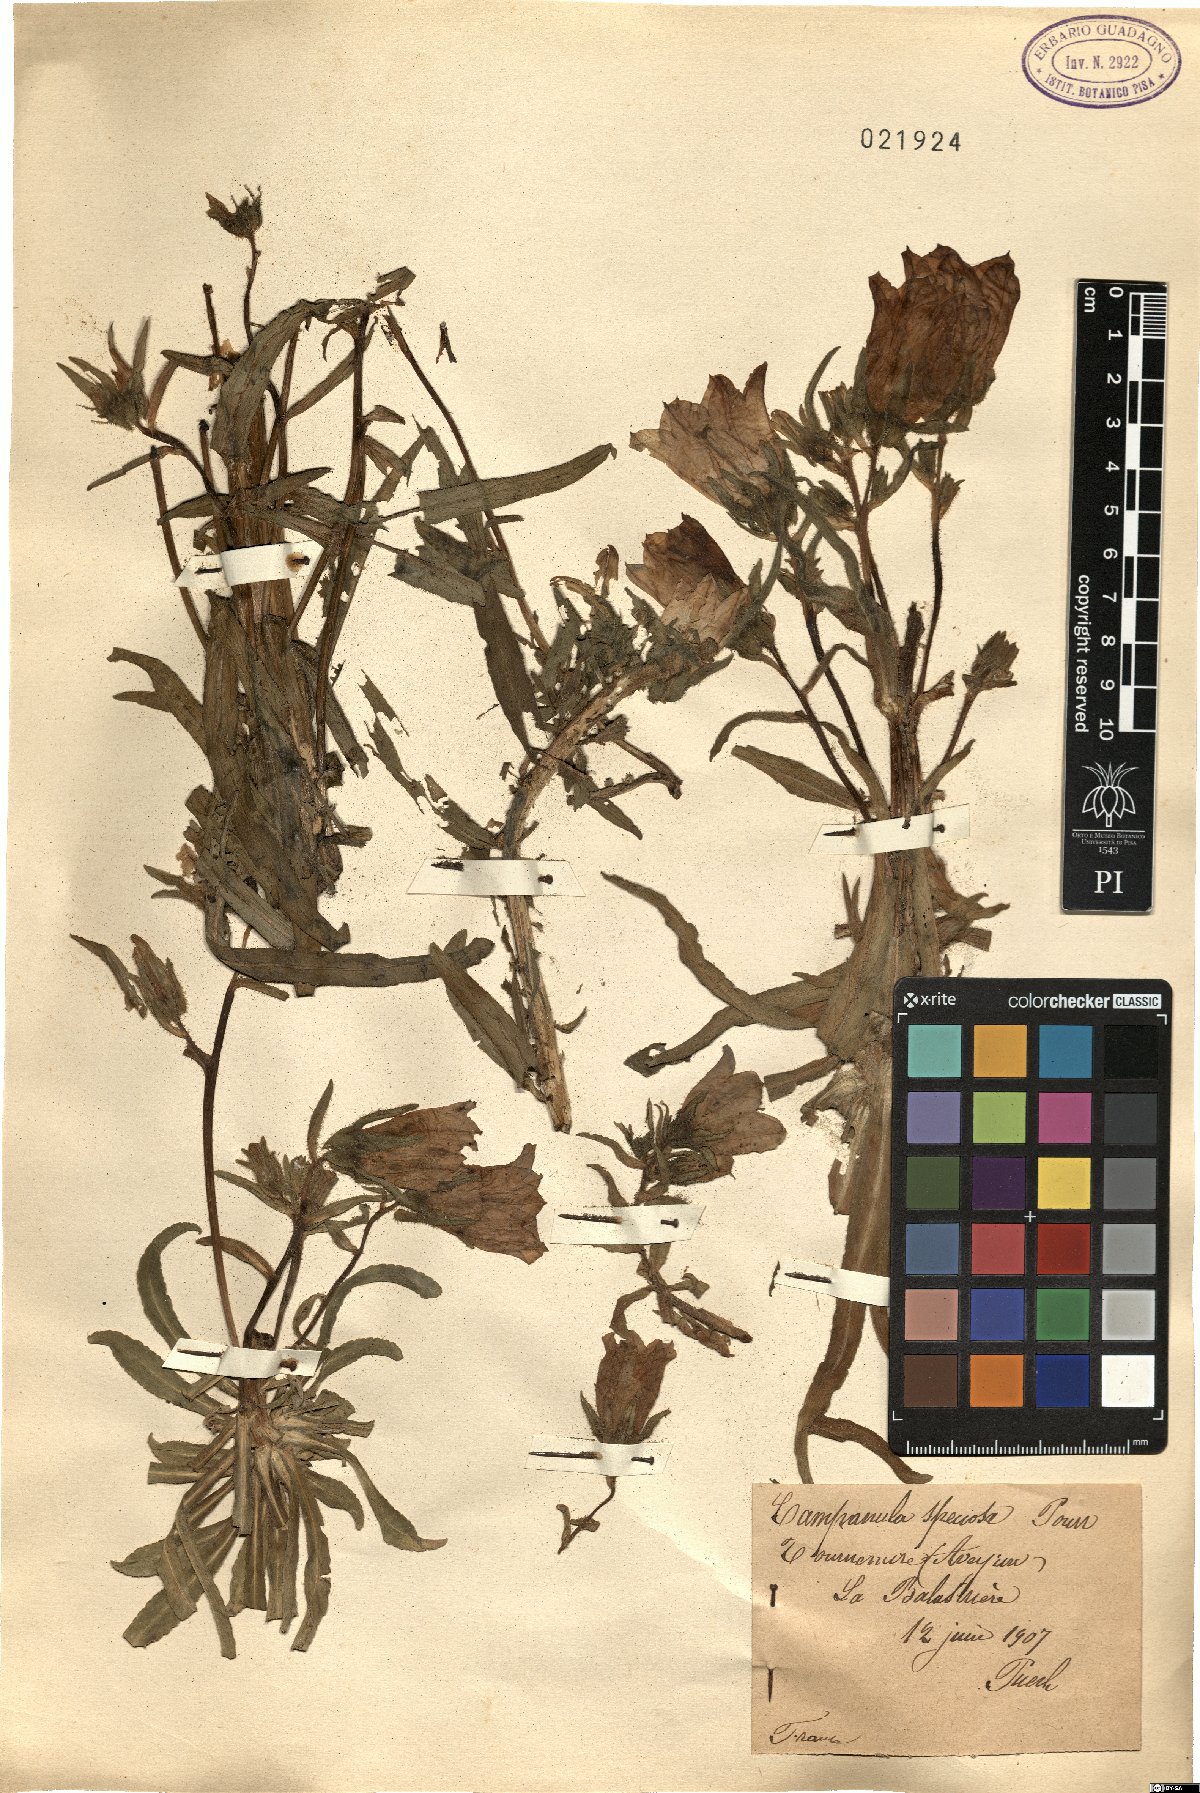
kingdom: Plantae
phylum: Tracheophyta
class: Magnoliopsida
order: Asterales
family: Campanulaceae
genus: Campanula
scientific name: Campanula speciosa
